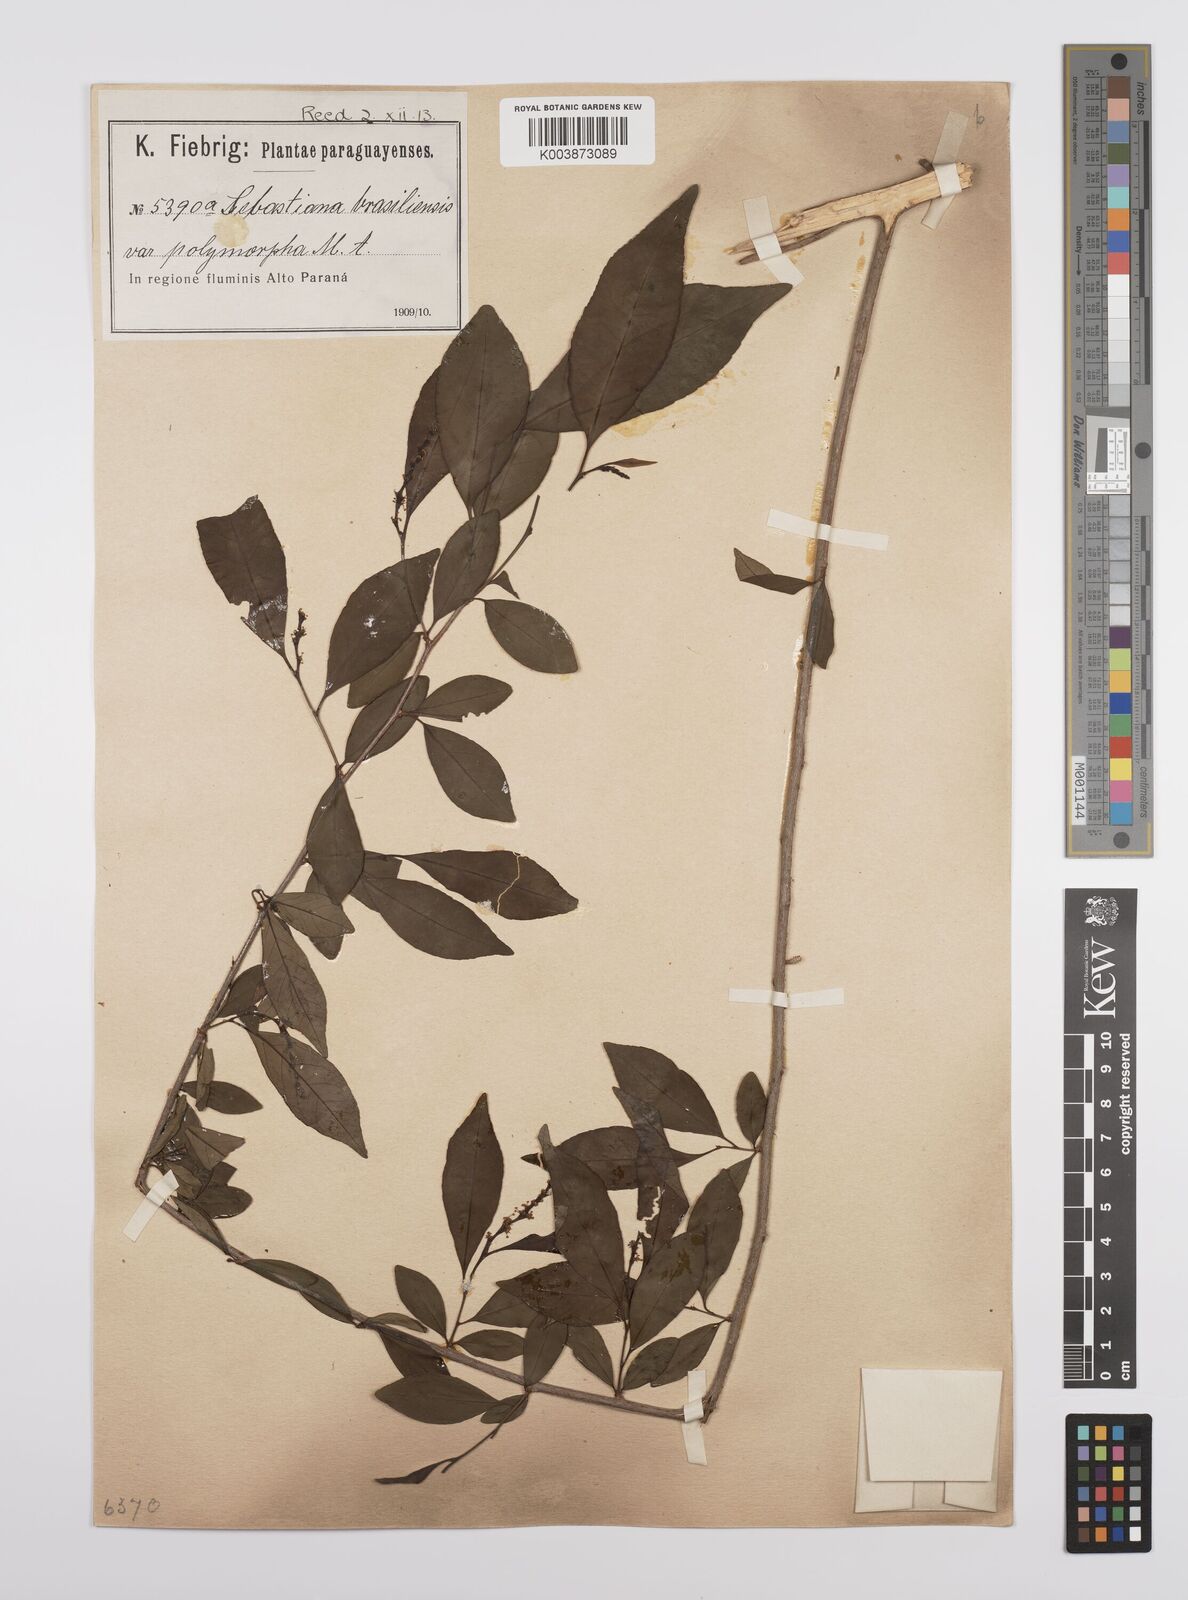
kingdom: Plantae
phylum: Tracheophyta
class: Magnoliopsida
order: Malpighiales
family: Euphorbiaceae
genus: Sebastiania
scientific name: Sebastiania ramosissima
